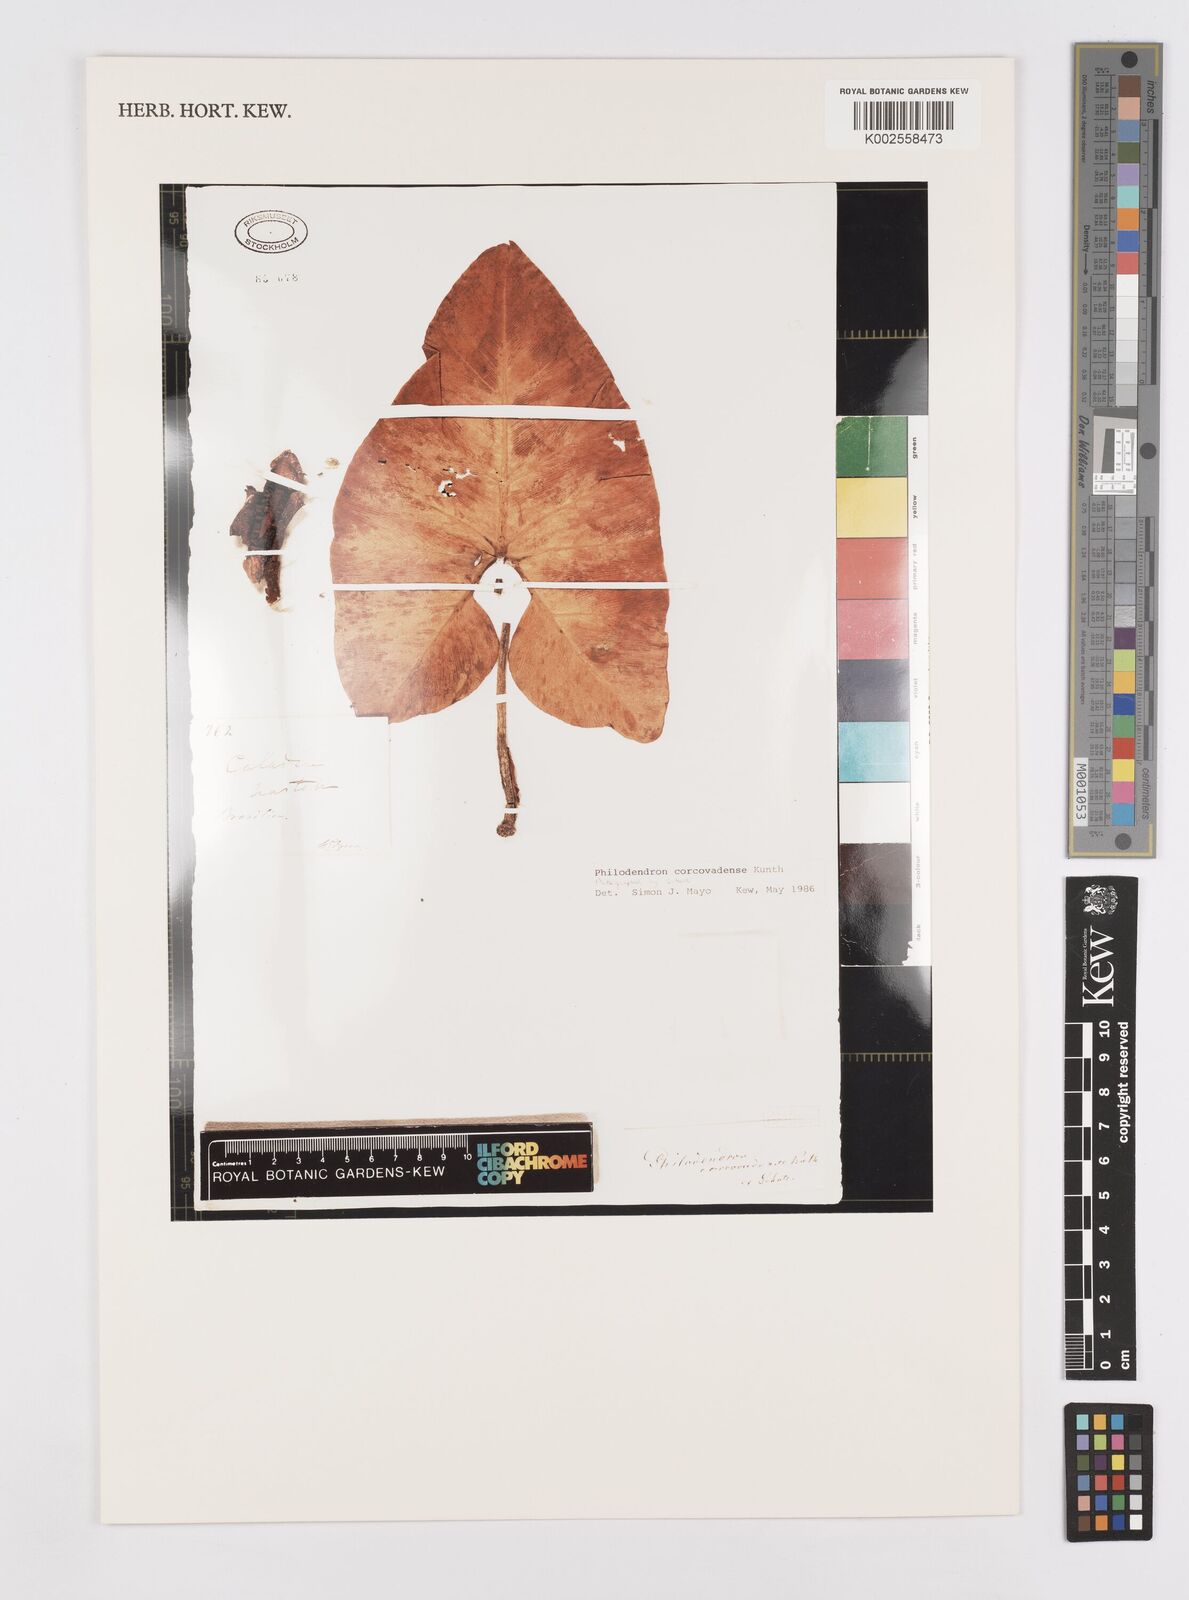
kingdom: Plantae
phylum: Tracheophyta
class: Liliopsida
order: Alismatales
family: Araceae
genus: Thaumatophyllum
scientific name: Thaumatophyllum corcovadense
